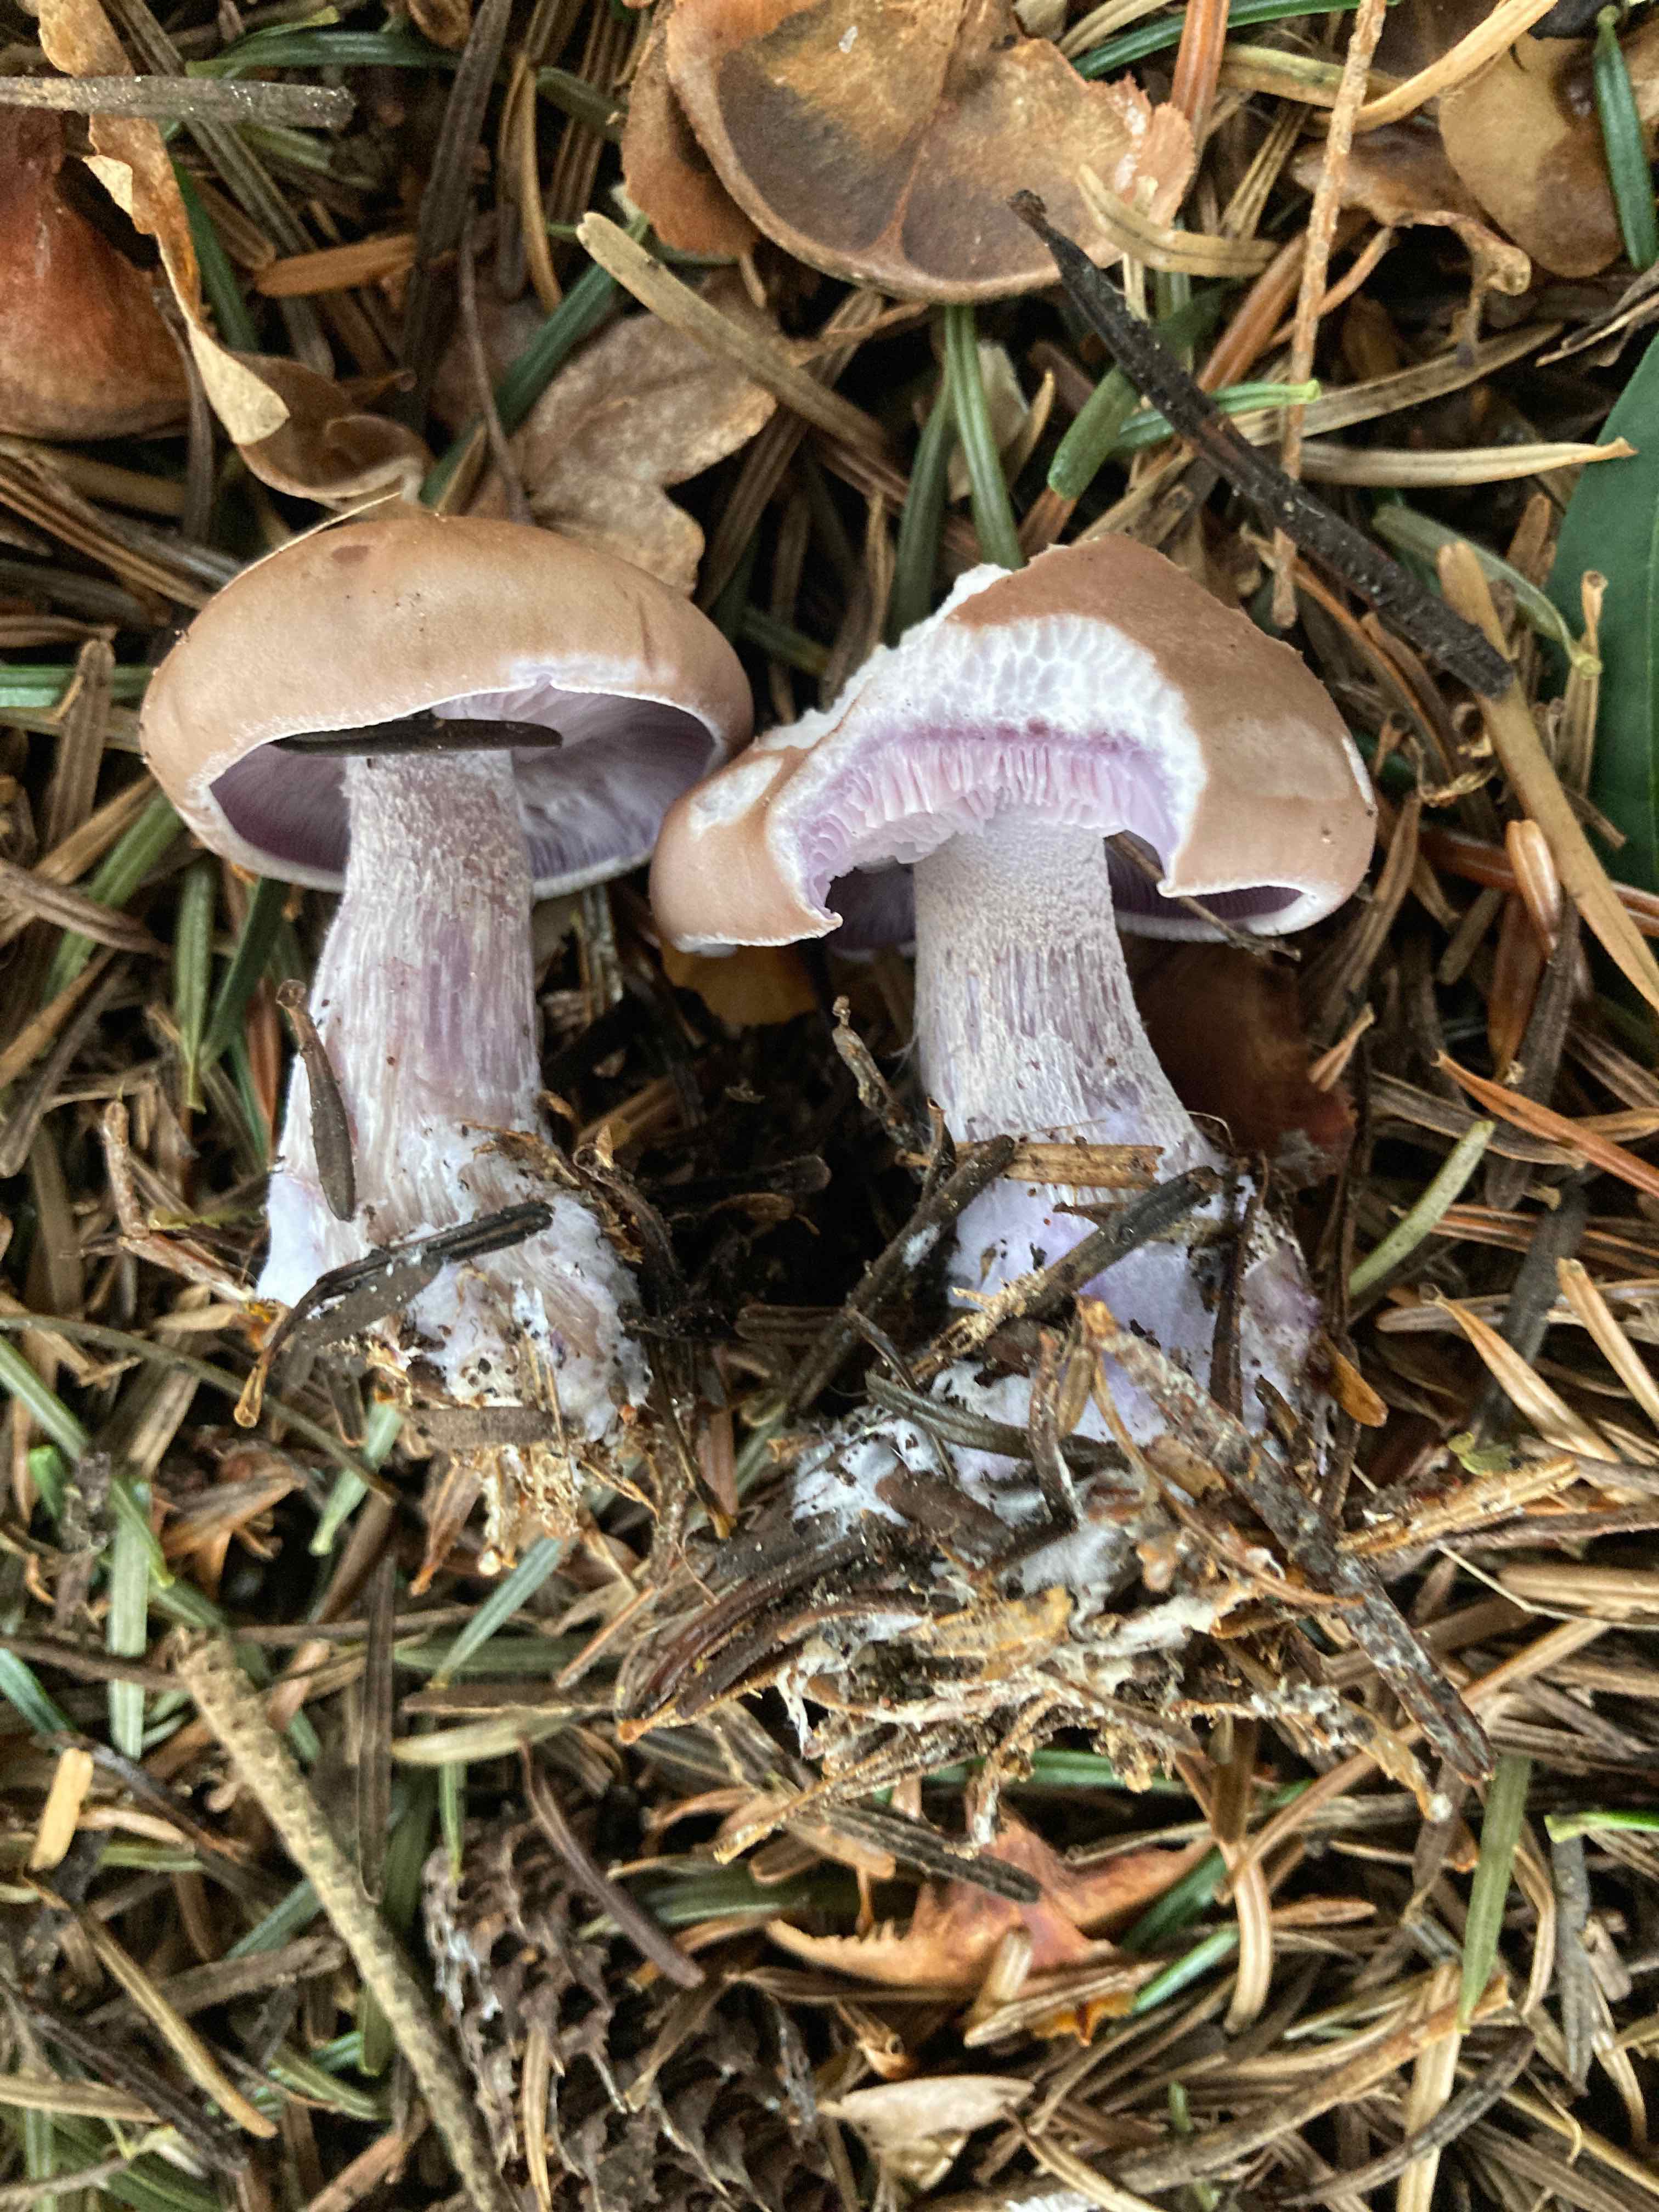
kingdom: Fungi
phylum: Basidiomycota
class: Agaricomycetes
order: Agaricales
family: Tricholomataceae
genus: Lepista
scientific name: Lepista nuda
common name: violet hekseringshat
